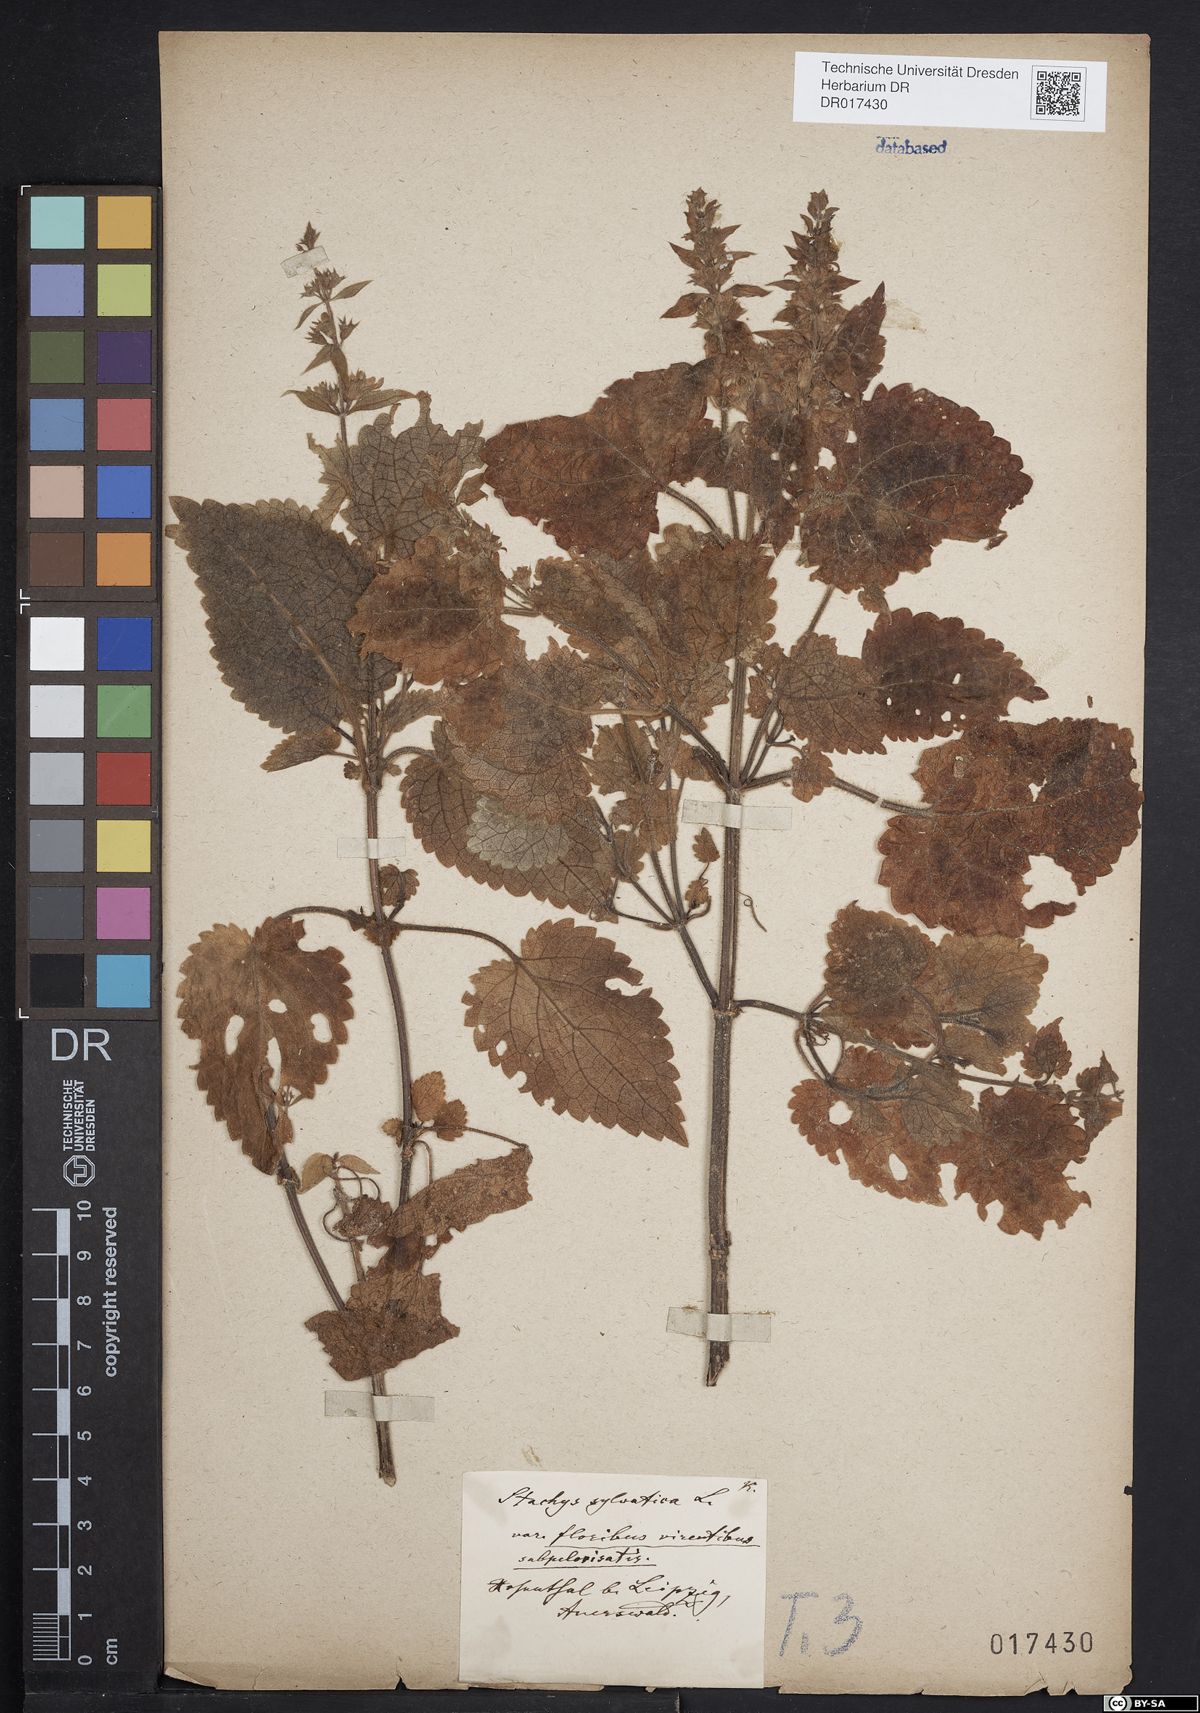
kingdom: Plantae
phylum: Tracheophyta
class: Magnoliopsida
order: Lamiales
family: Lamiaceae
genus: Stachys
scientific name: Stachys sylvatica
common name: Hedge woundwort
